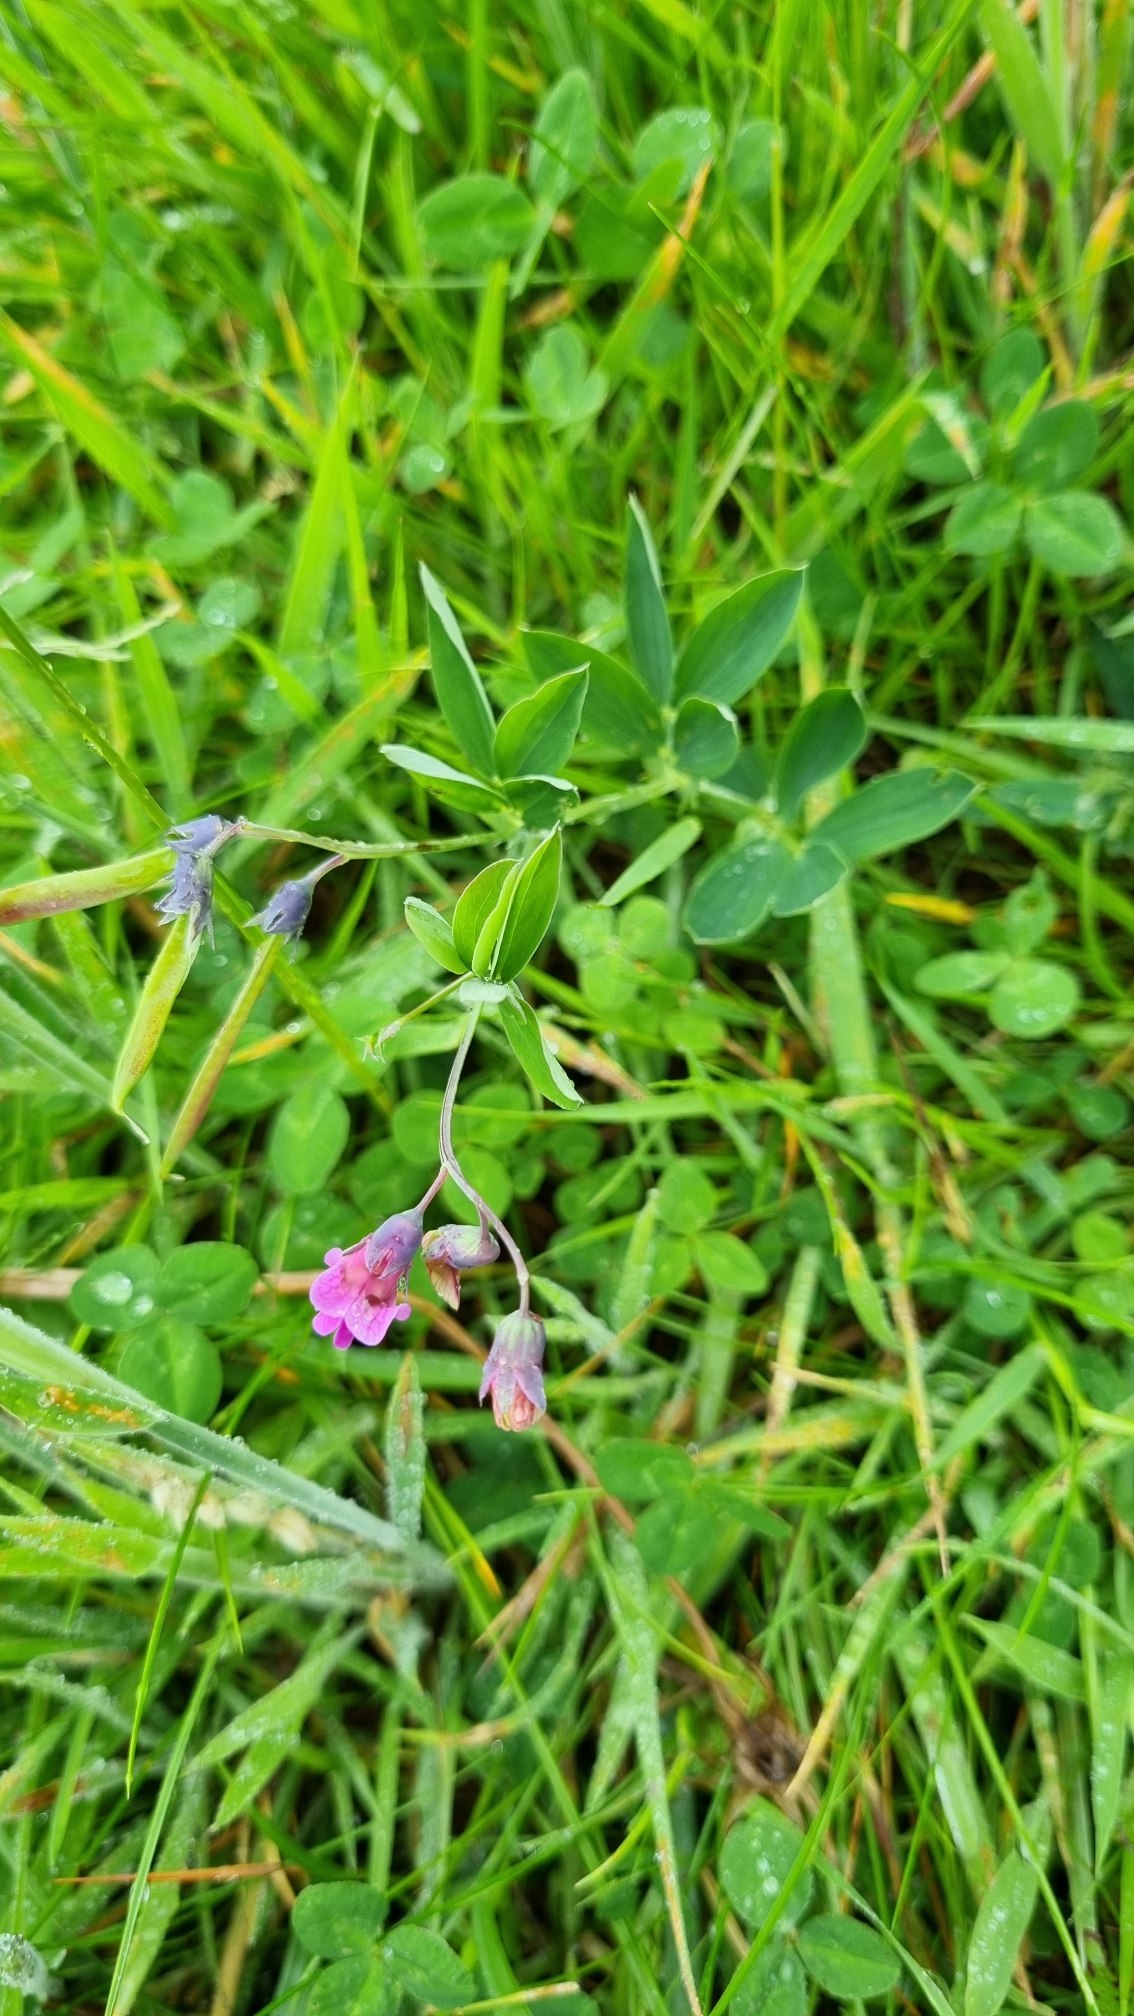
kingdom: Plantae
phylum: Tracheophyta
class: Magnoliopsida
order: Fabales
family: Fabaceae
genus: Lathyrus
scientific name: Lathyrus linifolius
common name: Krat-fladbælg
